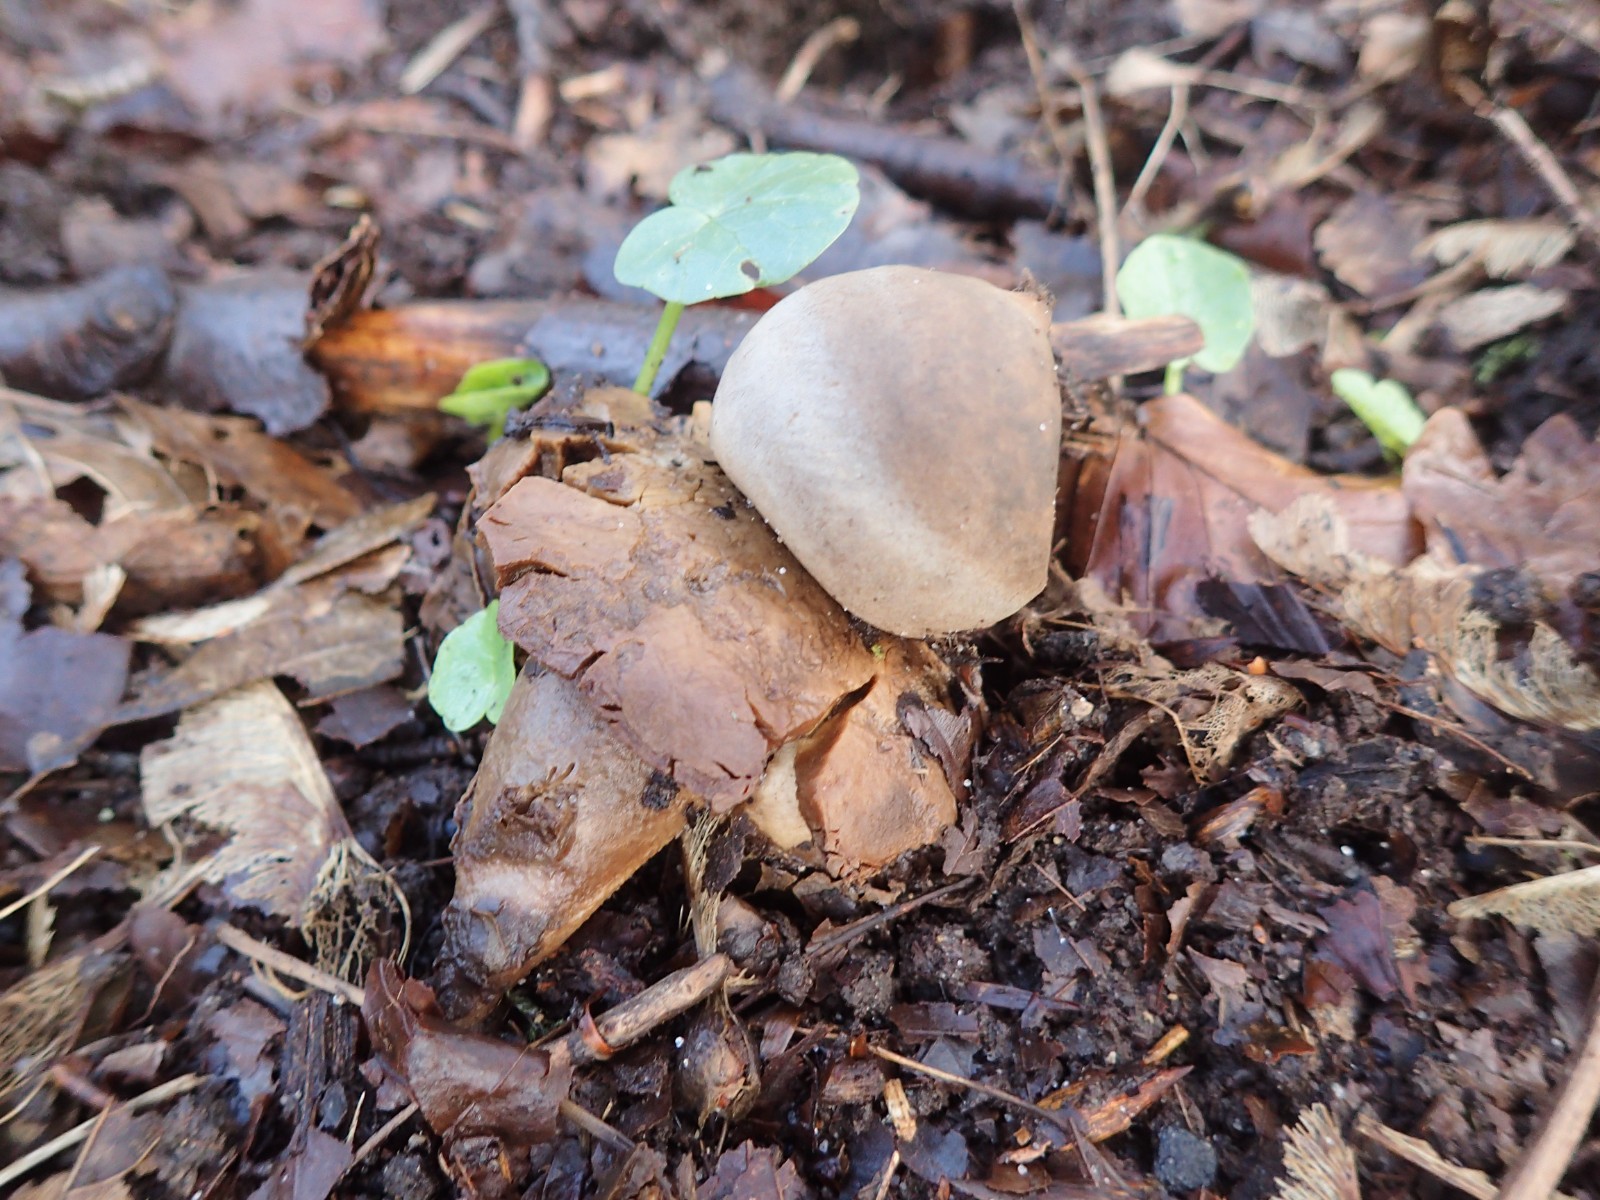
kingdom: Fungi
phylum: Basidiomycota
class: Agaricomycetes
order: Geastrales
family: Geastraceae
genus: Geastrum
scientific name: Geastrum michelianum
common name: kødet stjernebold
